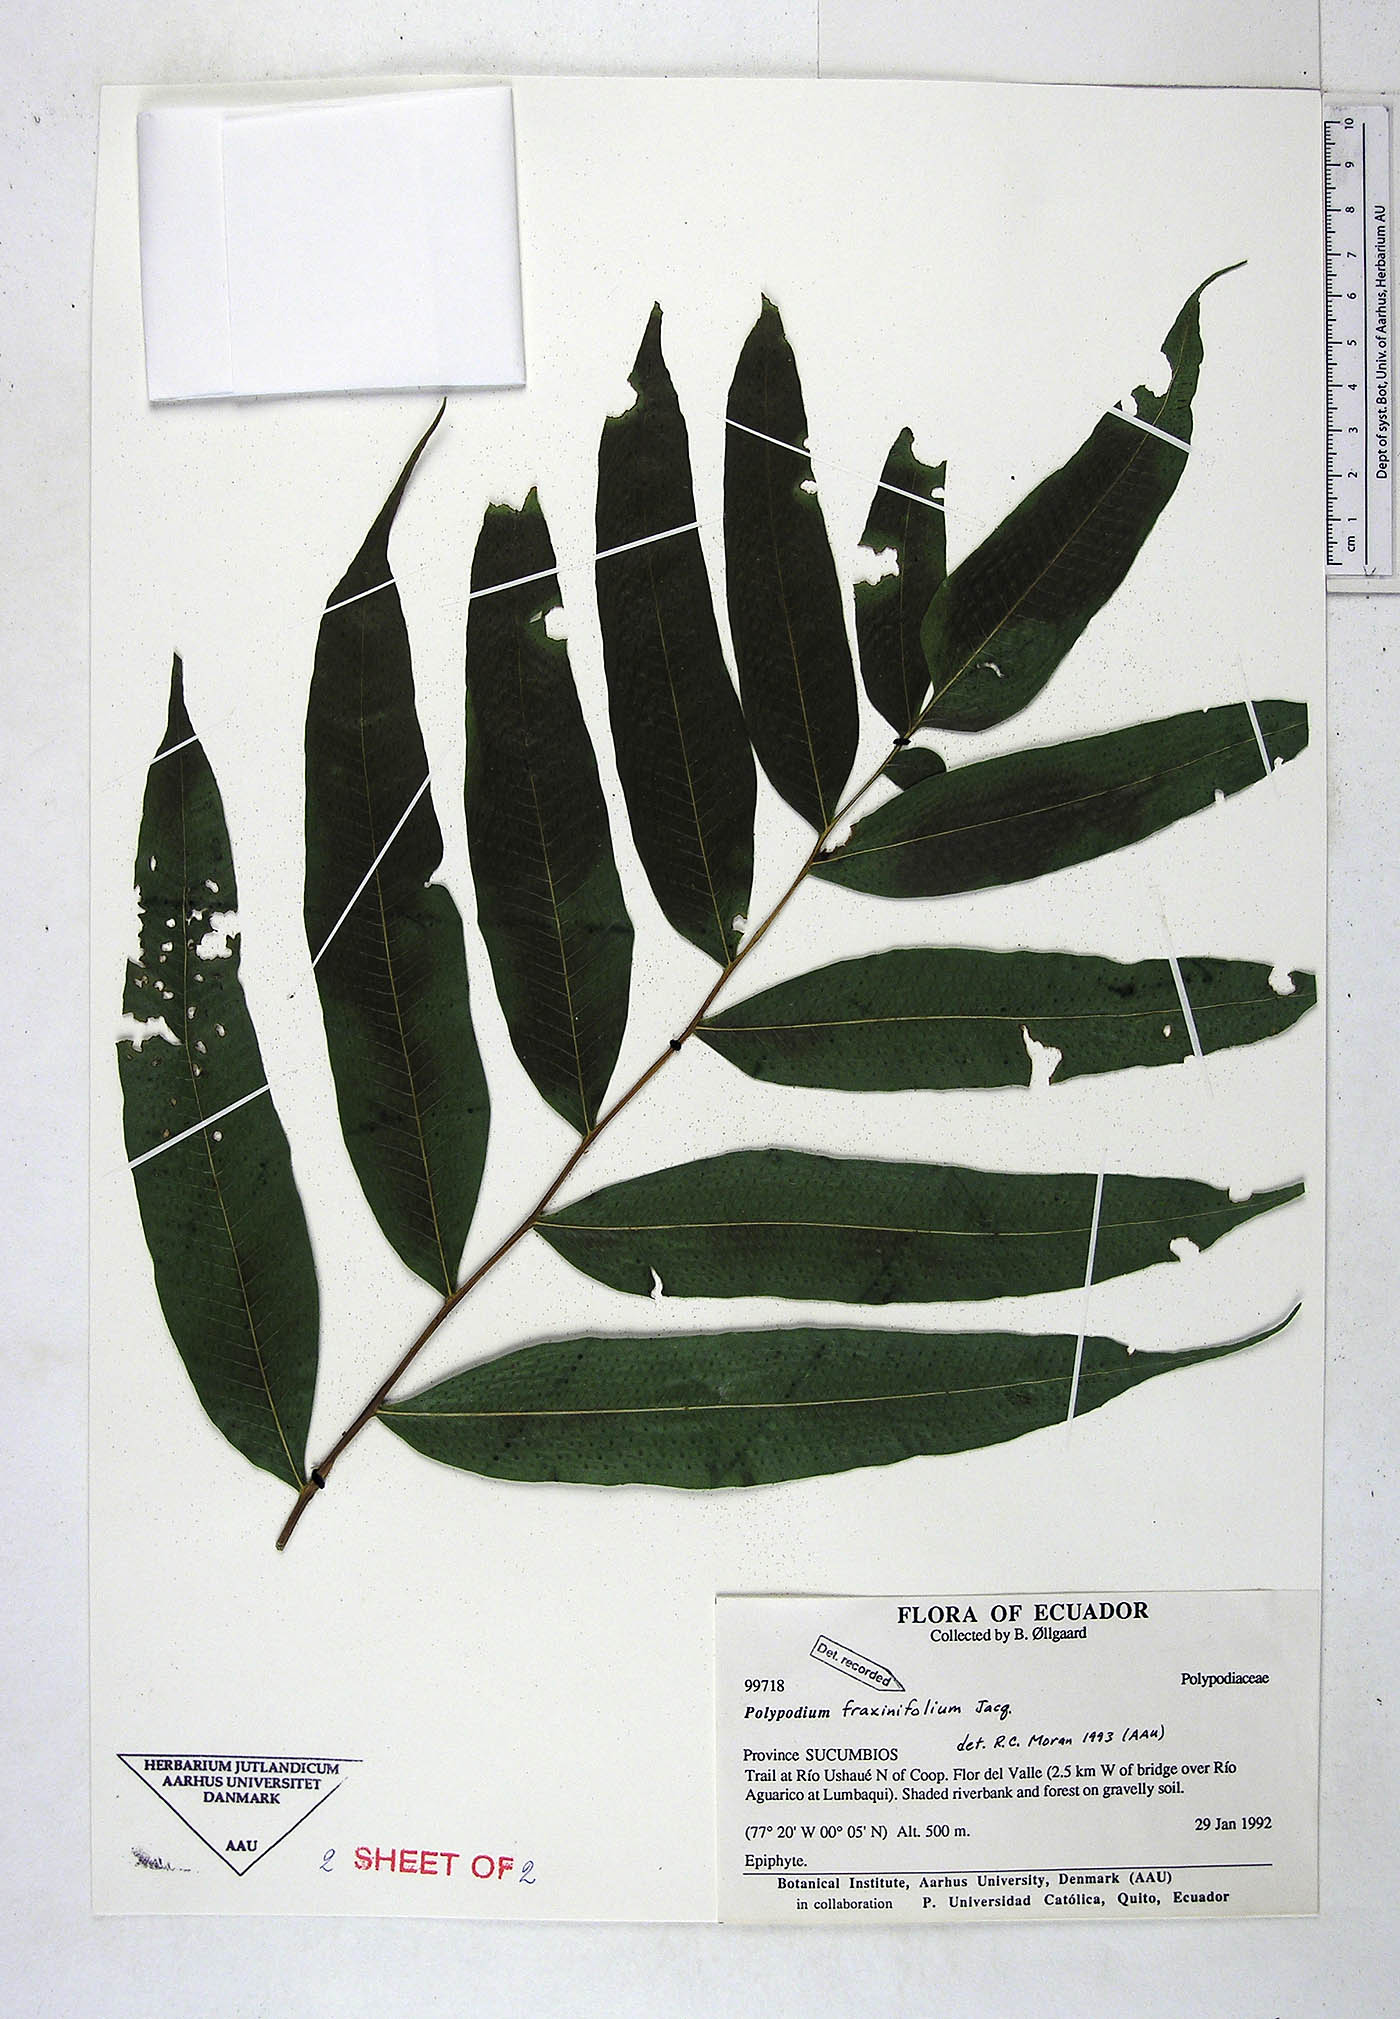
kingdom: Plantae
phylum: Tracheophyta
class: Polypodiopsida
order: Polypodiales
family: Polypodiaceae
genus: Serpocaulon
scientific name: Serpocaulon fraxinifolium
